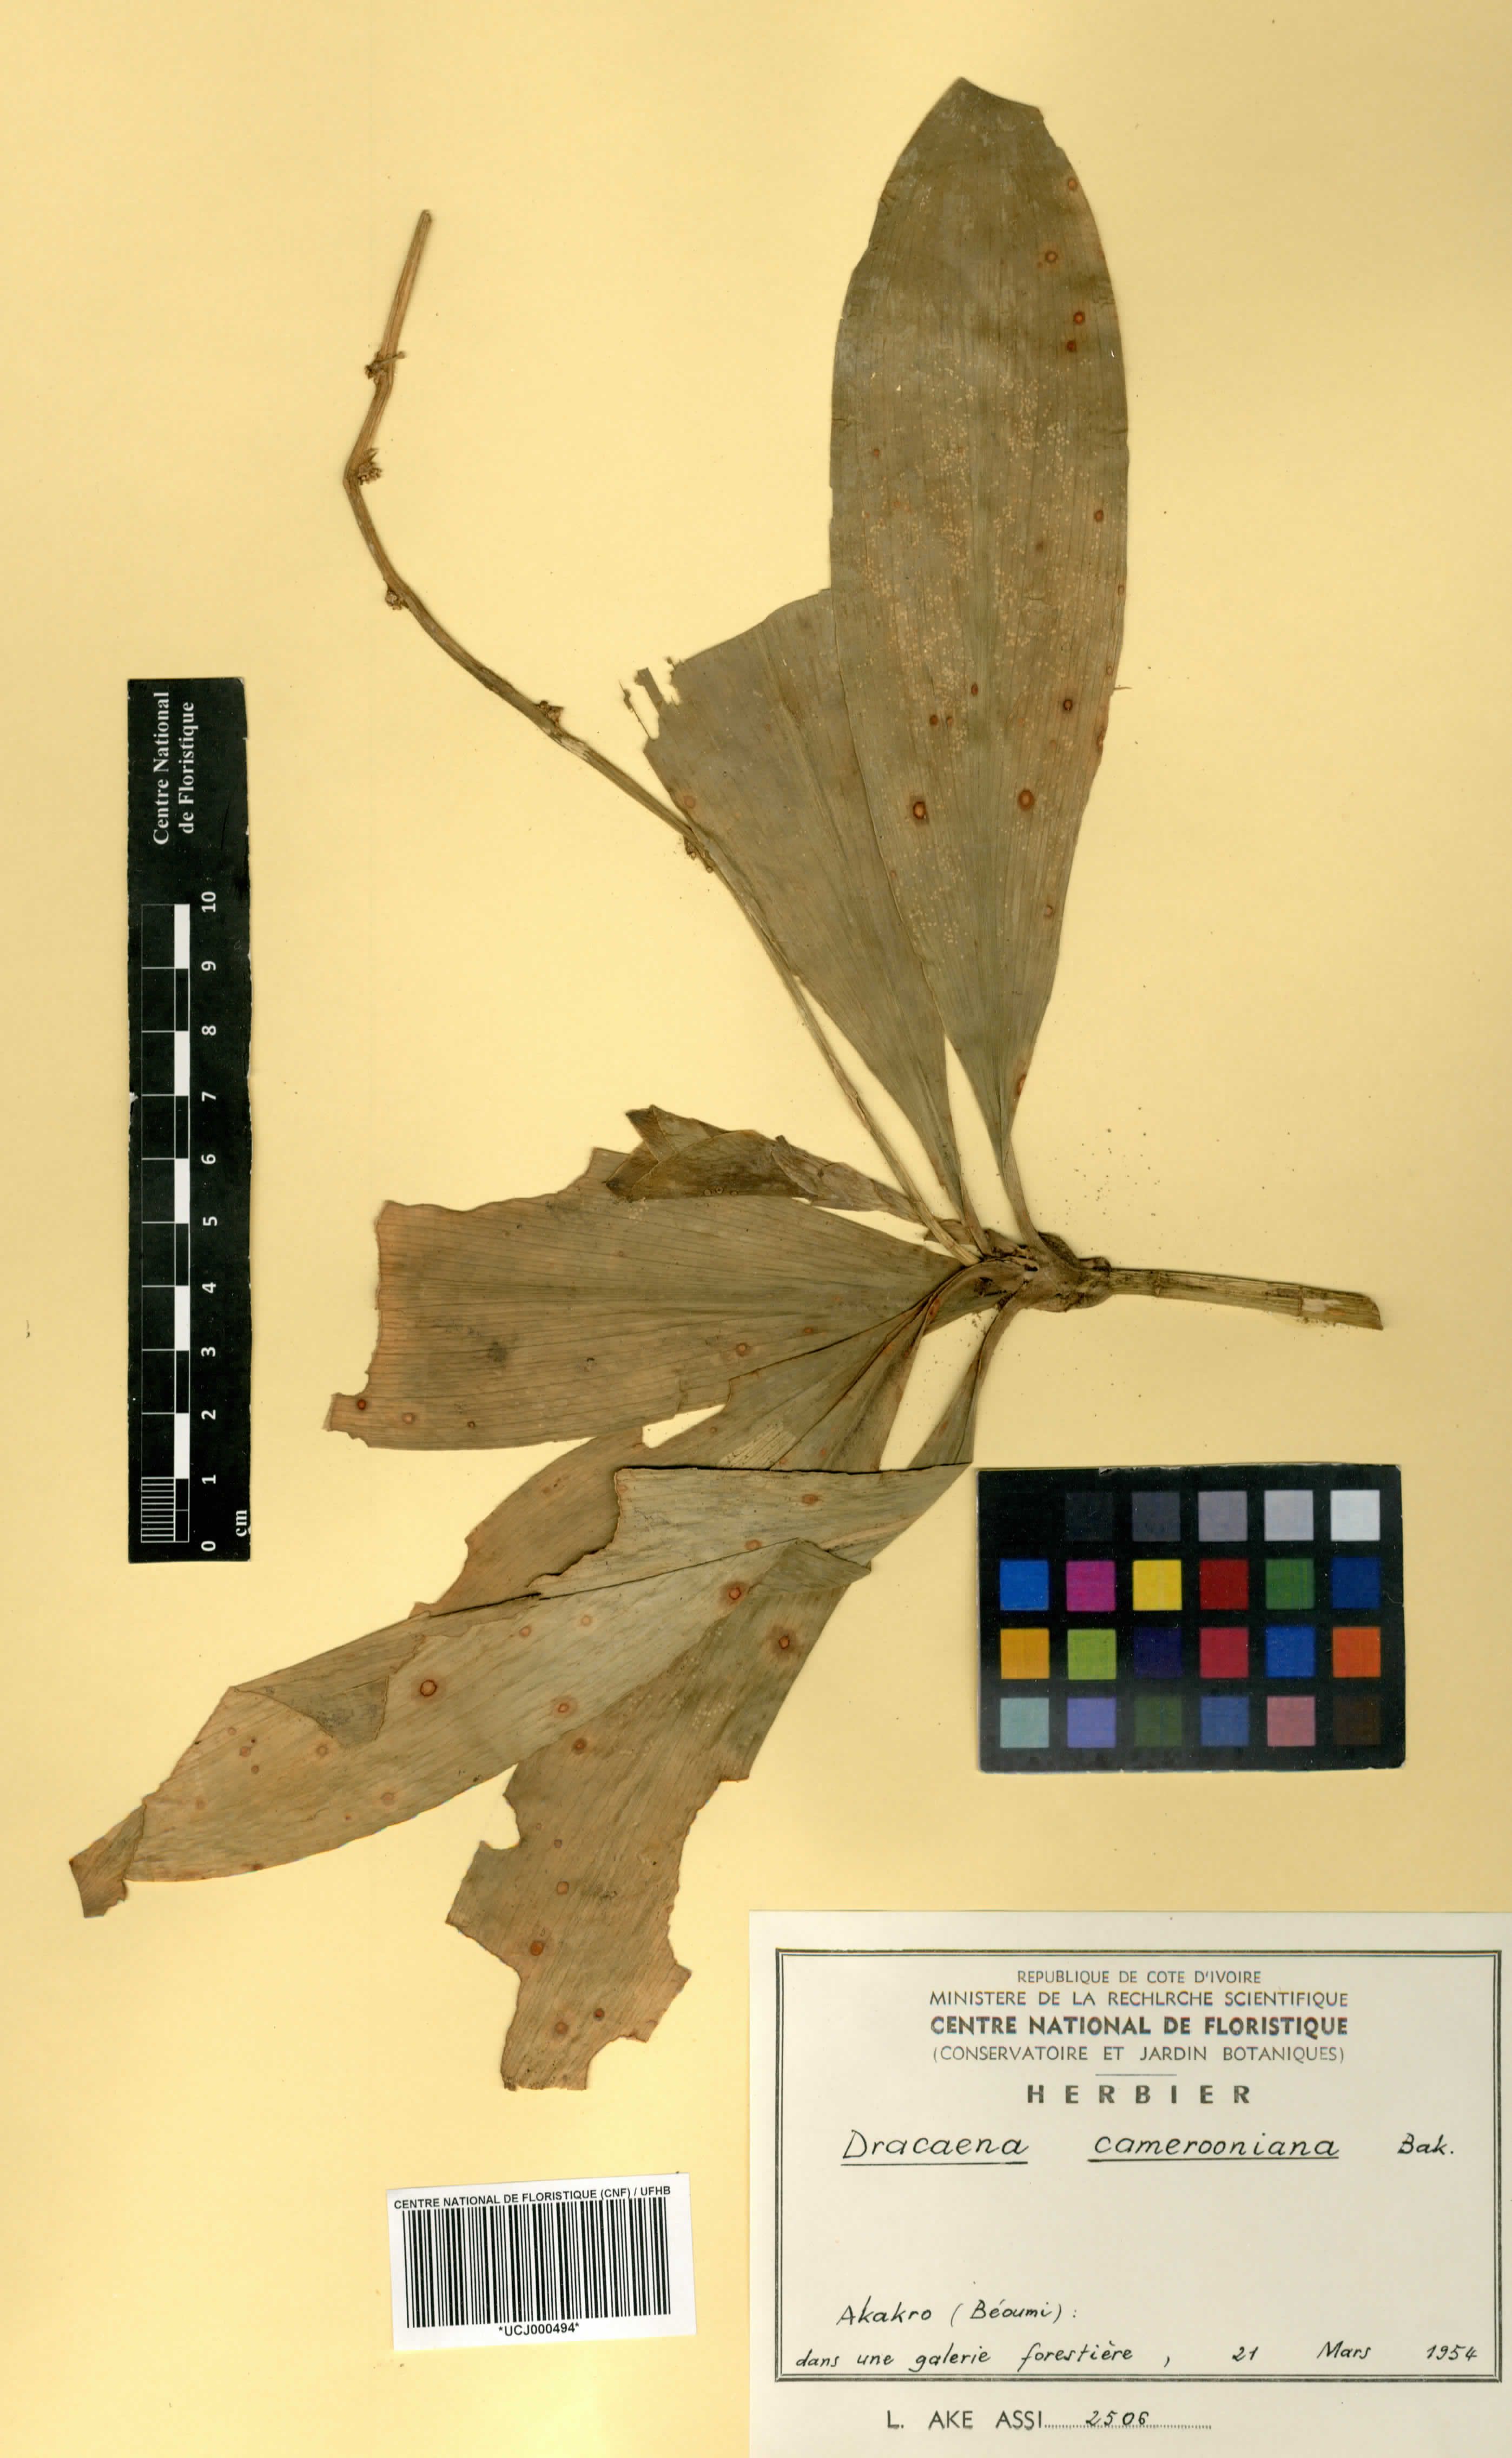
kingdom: Plantae
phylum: Tracheophyta
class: Liliopsida
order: Asparagales
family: Asparagaceae
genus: Dracaena
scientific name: Dracaena camerooniana
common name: Dragon tree
